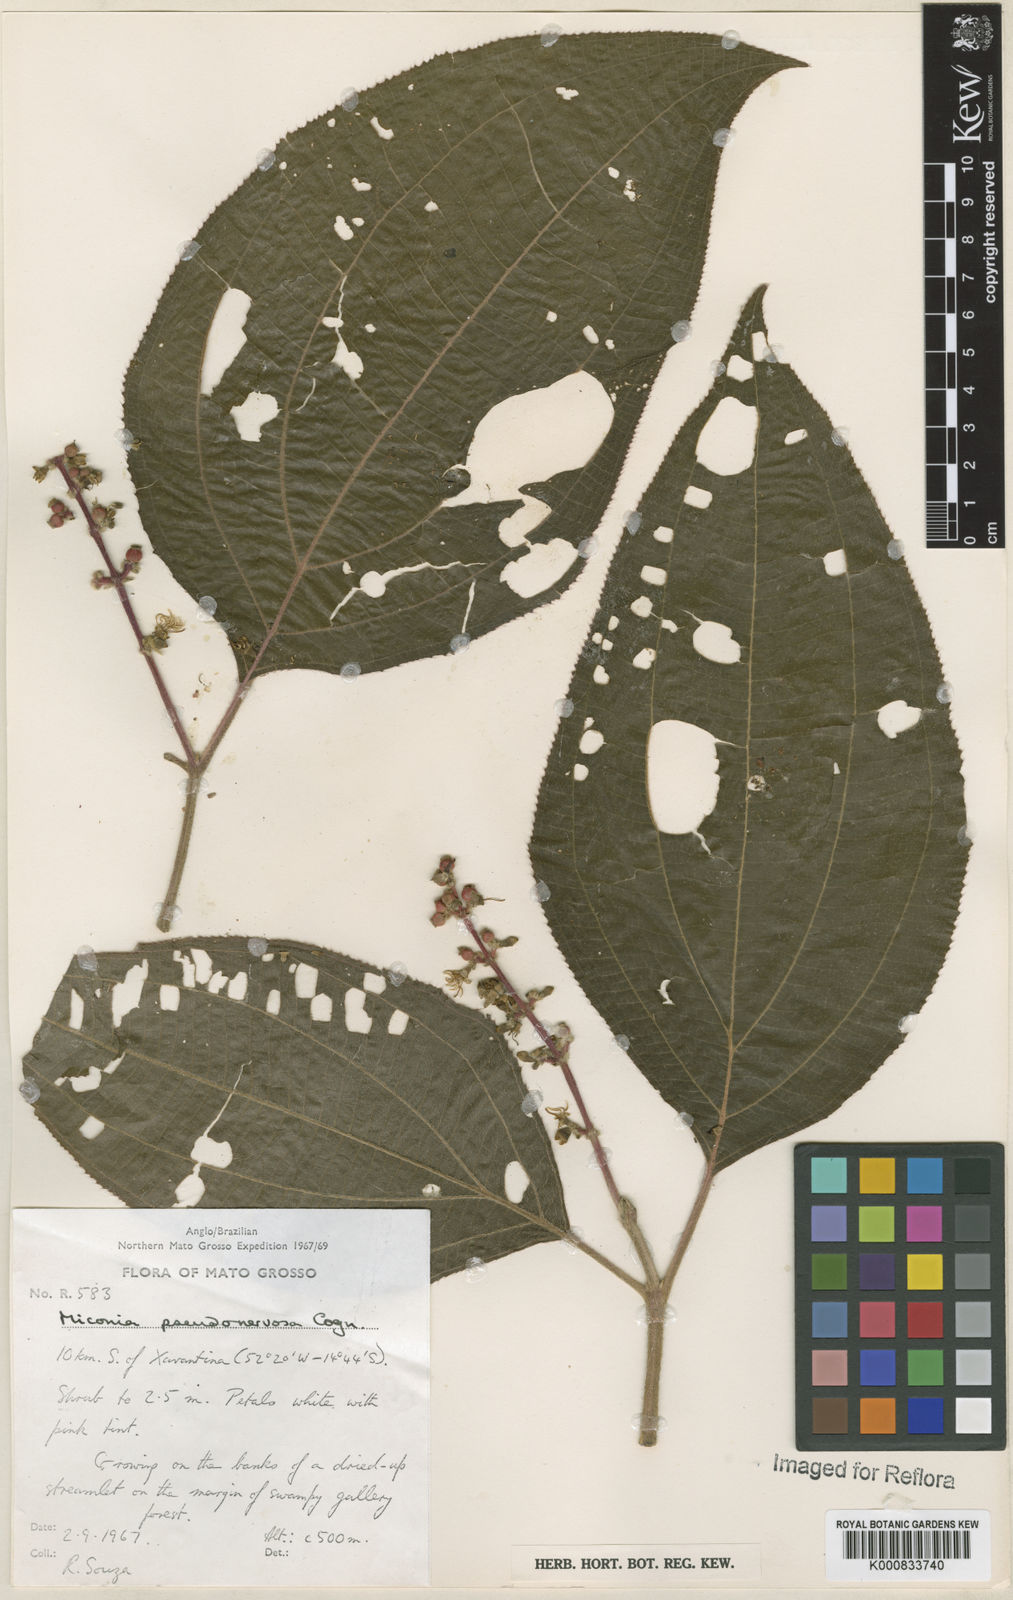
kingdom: Plantae
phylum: Tracheophyta
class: Magnoliopsida
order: Myrtales
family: Melastomataceae
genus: Miconia
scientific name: Miconia pseudonervosa
